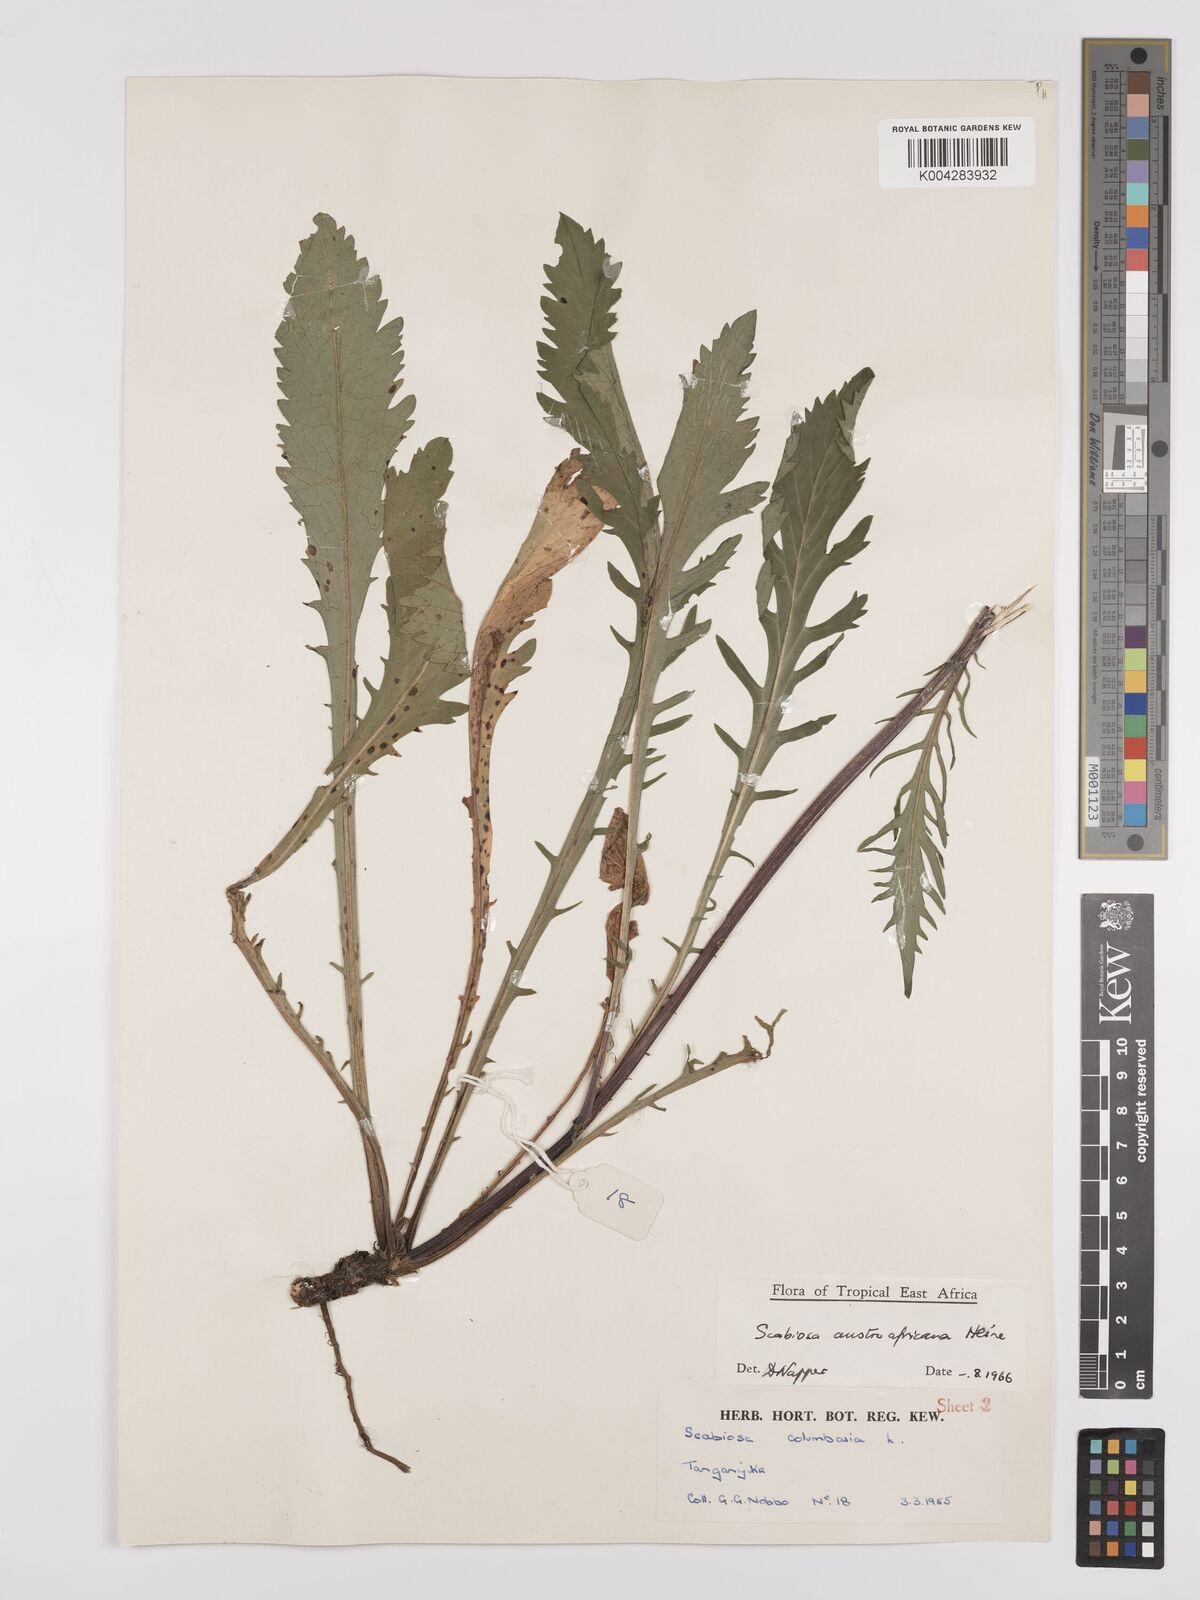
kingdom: Plantae
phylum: Tracheophyta
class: Magnoliopsida
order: Dipsacales
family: Caprifoliaceae
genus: Scabiosa
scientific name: Scabiosa austroafricana
